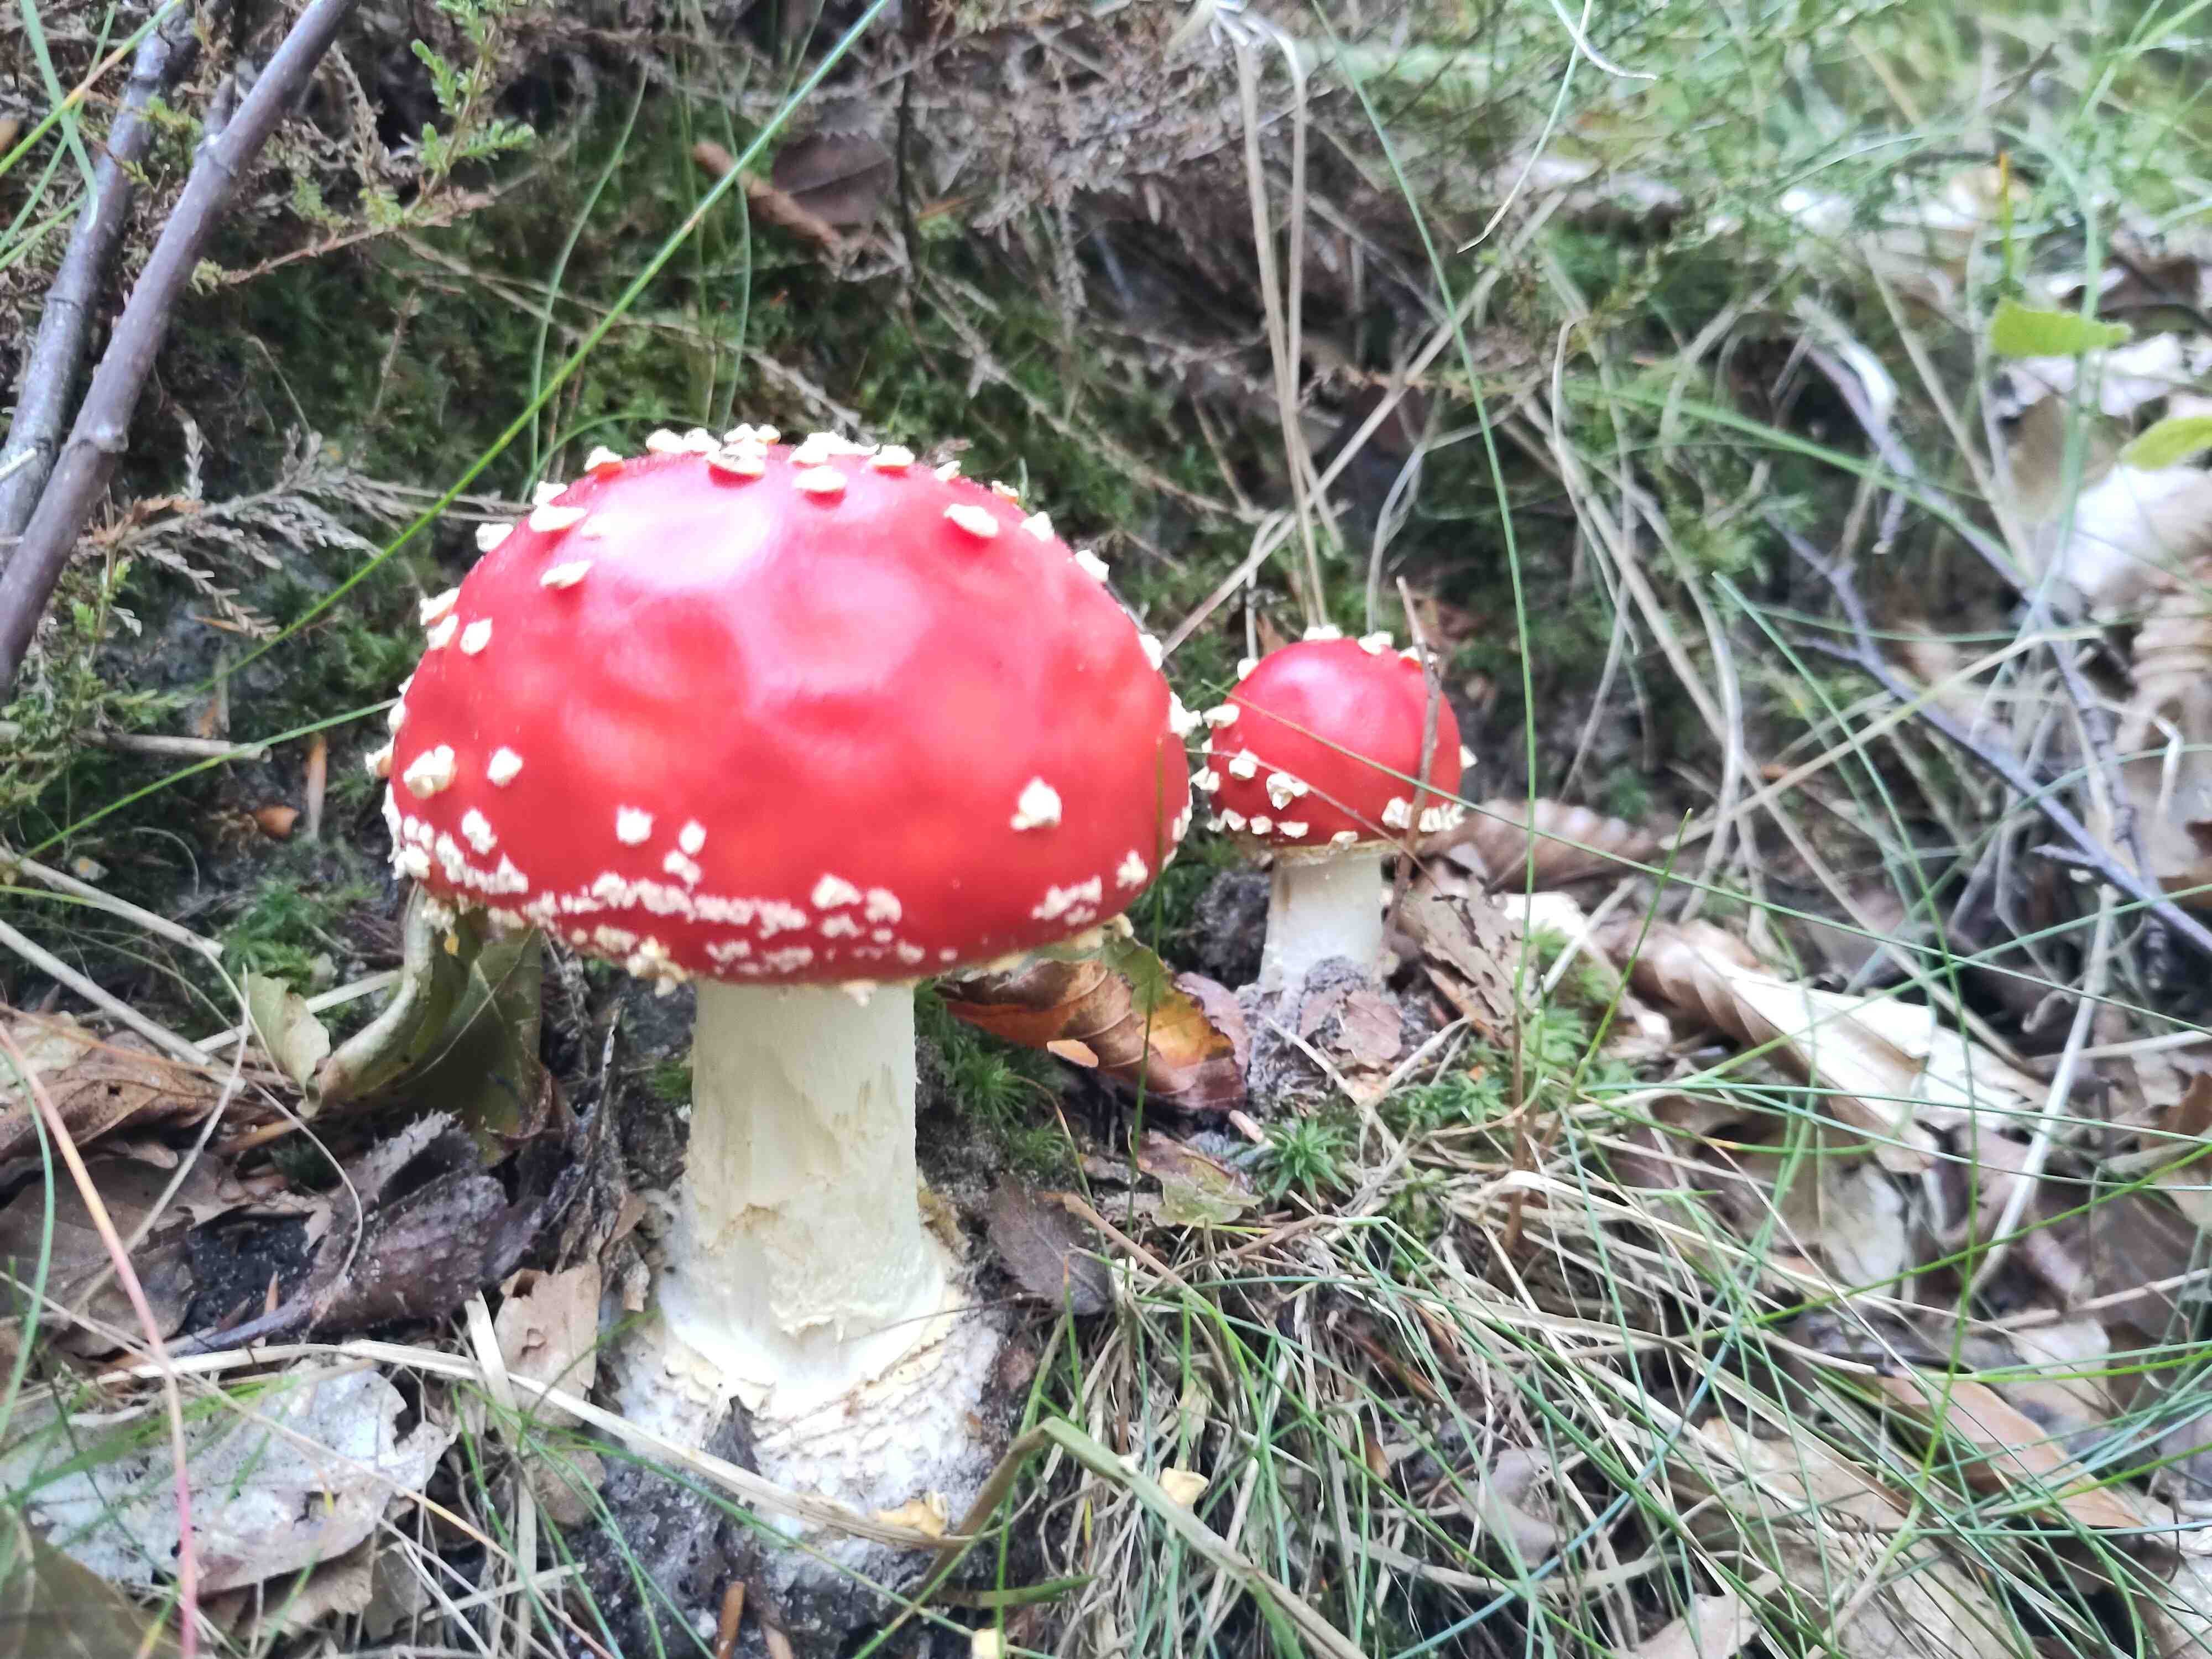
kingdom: Fungi
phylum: Basidiomycota
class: Agaricomycetes
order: Agaricales
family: Amanitaceae
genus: Amanita
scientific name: Amanita muscaria
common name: rød fluesvamp
